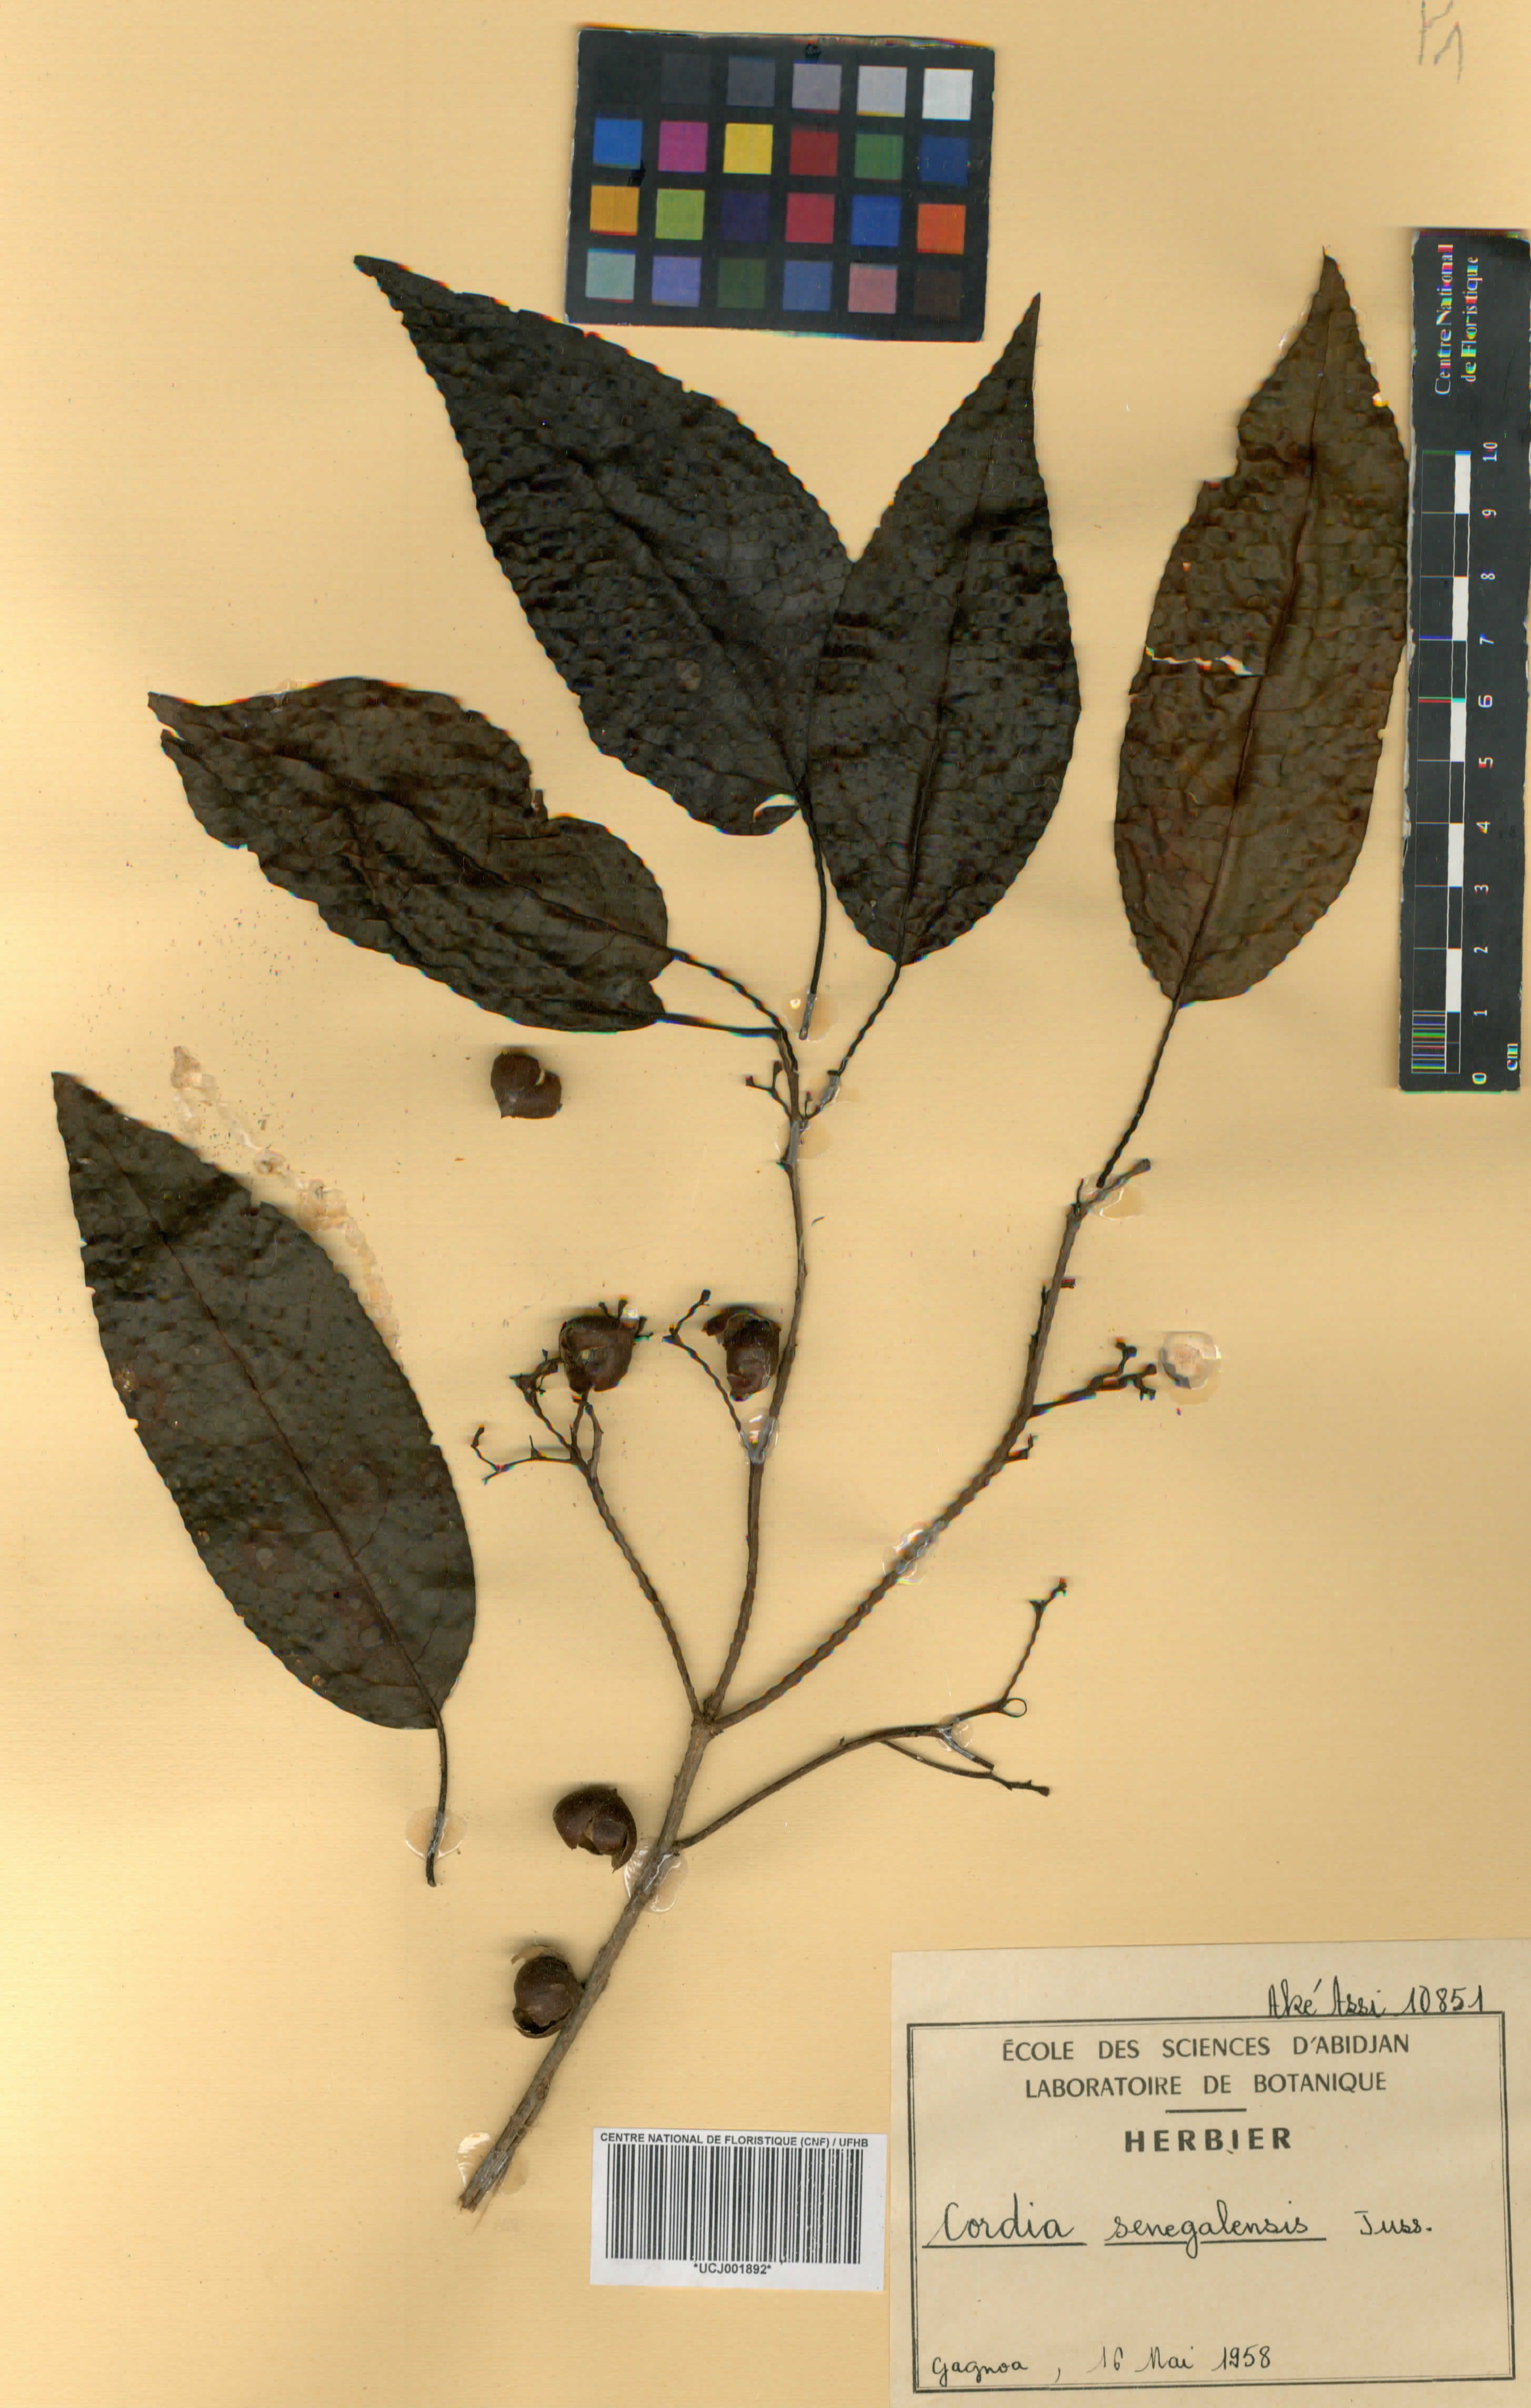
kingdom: Plantae
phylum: Tracheophyta
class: Magnoliopsida
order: Boraginales
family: Cordiaceae
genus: Cordia
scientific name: Cordia senegalensis
